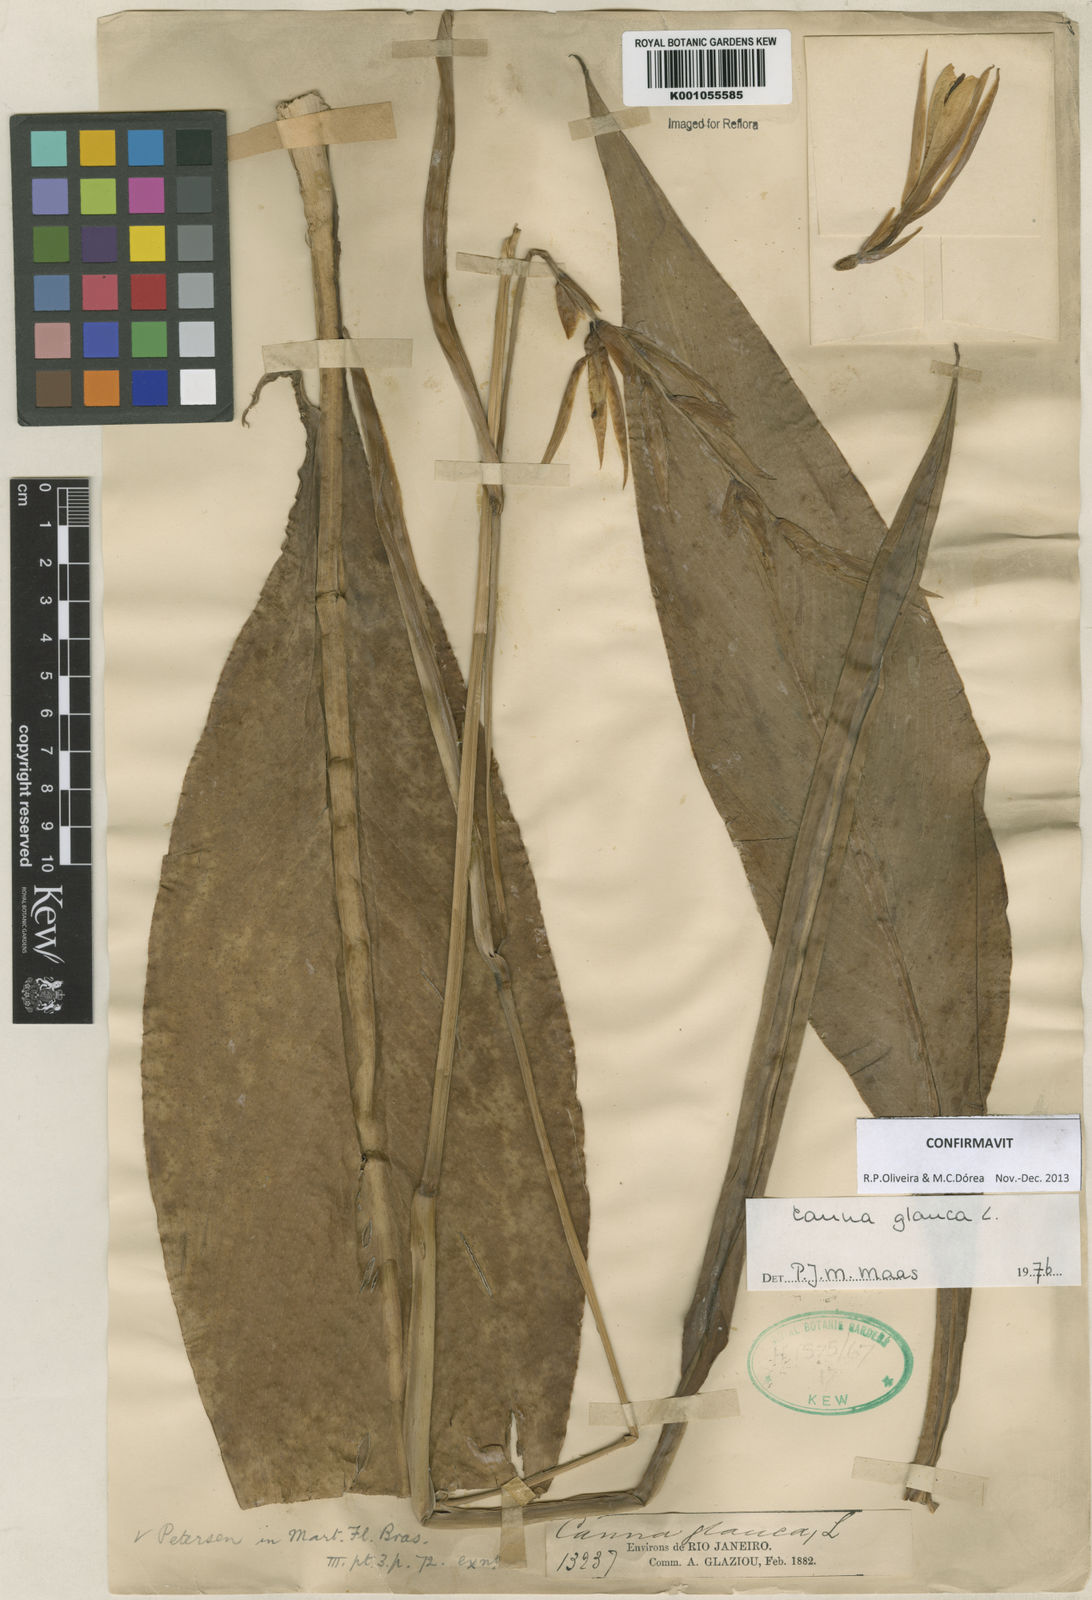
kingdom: Plantae
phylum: Tracheophyta
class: Liliopsida
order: Zingiberales
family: Cannaceae
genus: Canna
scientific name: Canna glauca
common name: Louisiana canna
